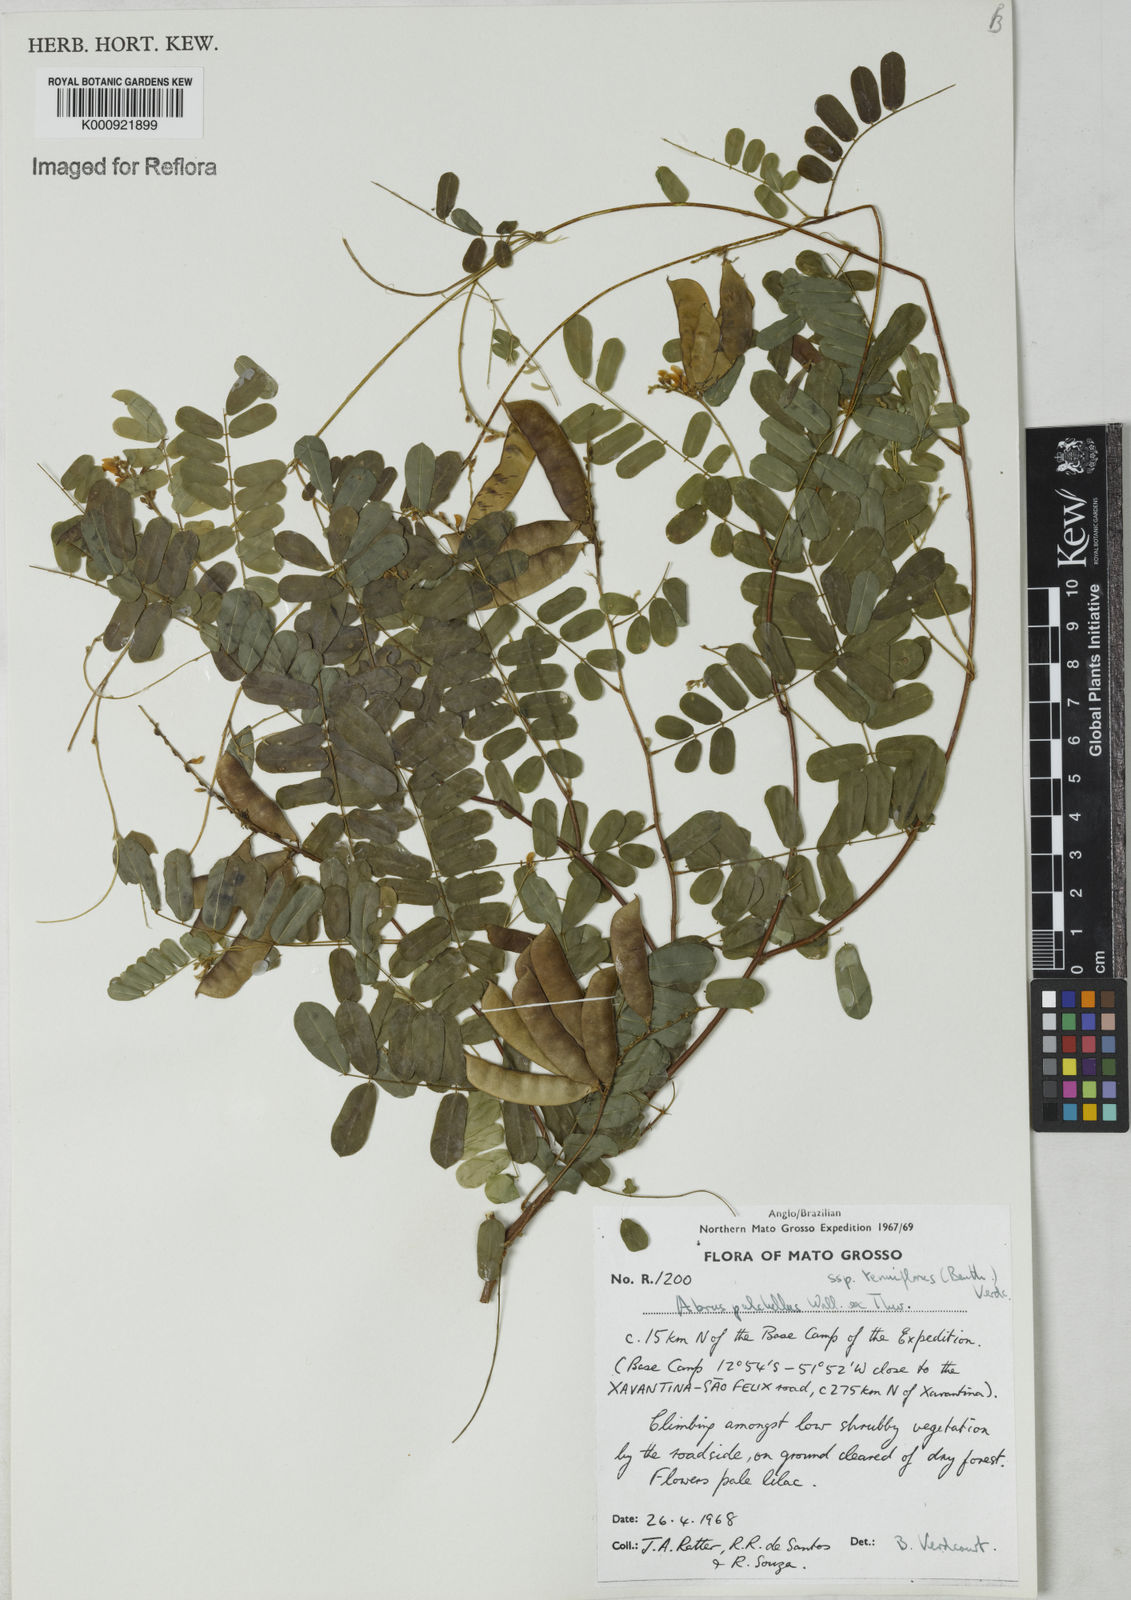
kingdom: Plantae
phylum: Tracheophyta
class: Magnoliopsida
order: Fabales
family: Fabaceae
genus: Abrus
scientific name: Abrus melanospermus
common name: Licorice-root
